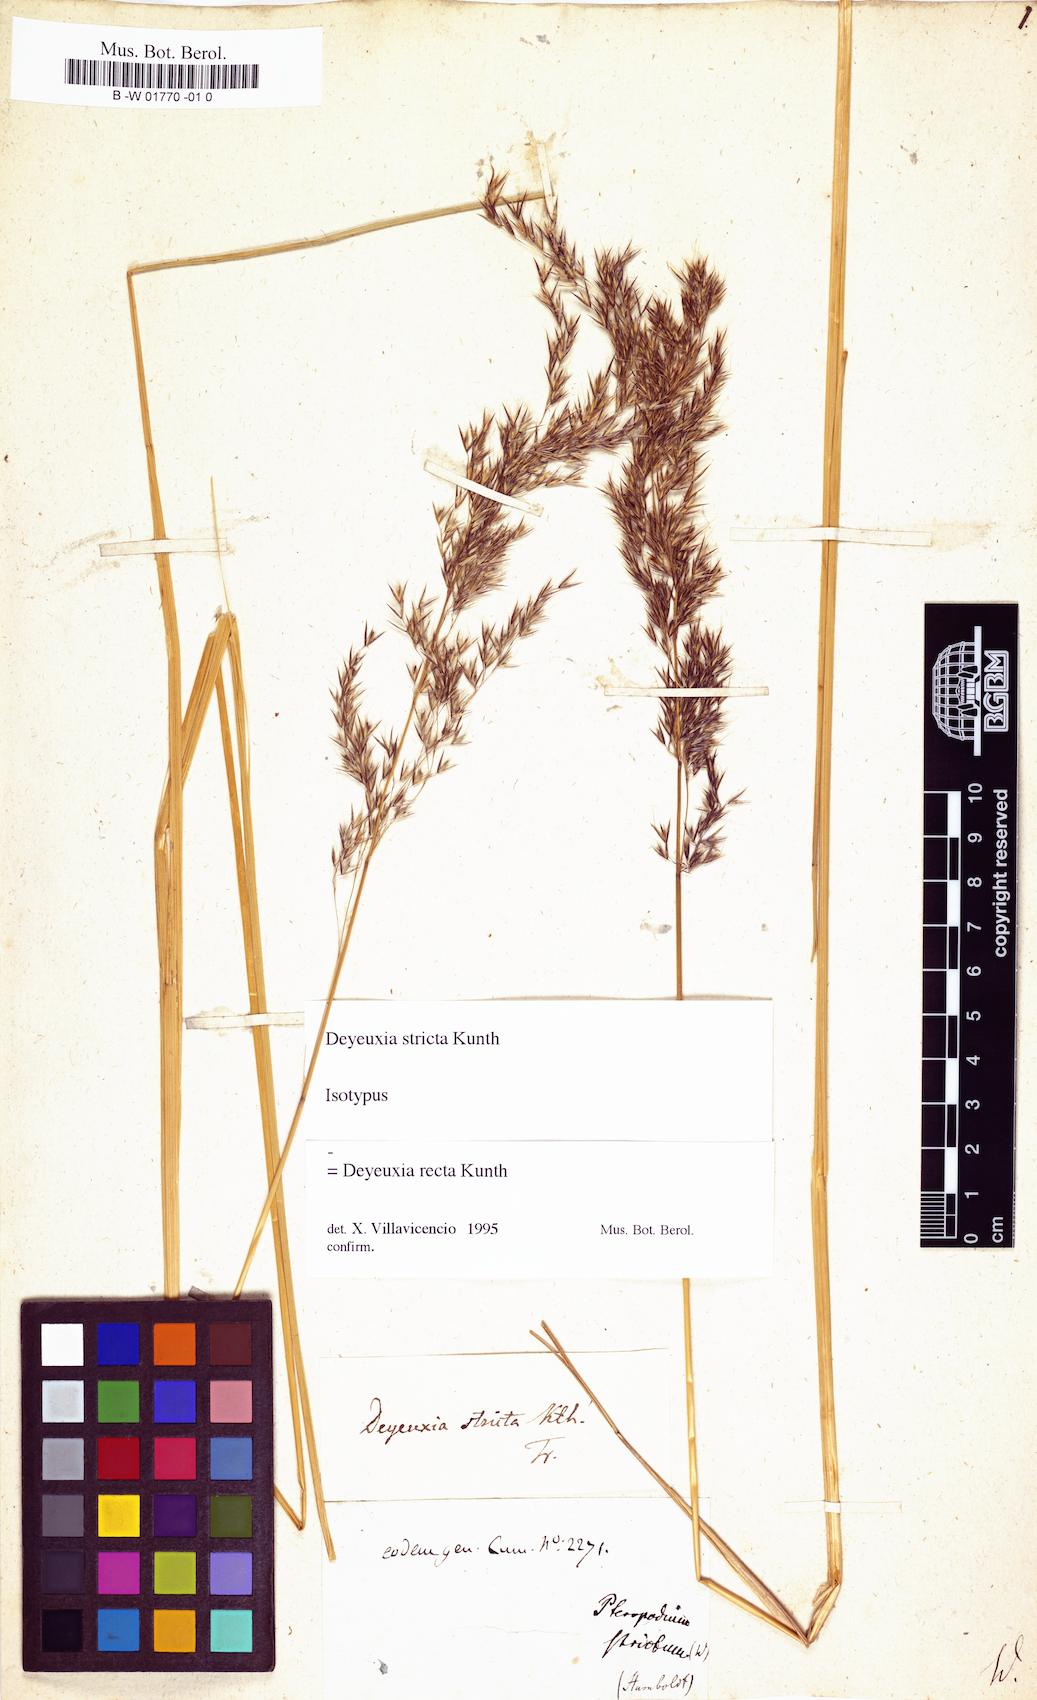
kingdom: Plantae
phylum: Tracheophyta
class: Liliopsida
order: Poales
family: Poaceae
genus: Cinnagrostis
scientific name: Cinnagrostis recta
